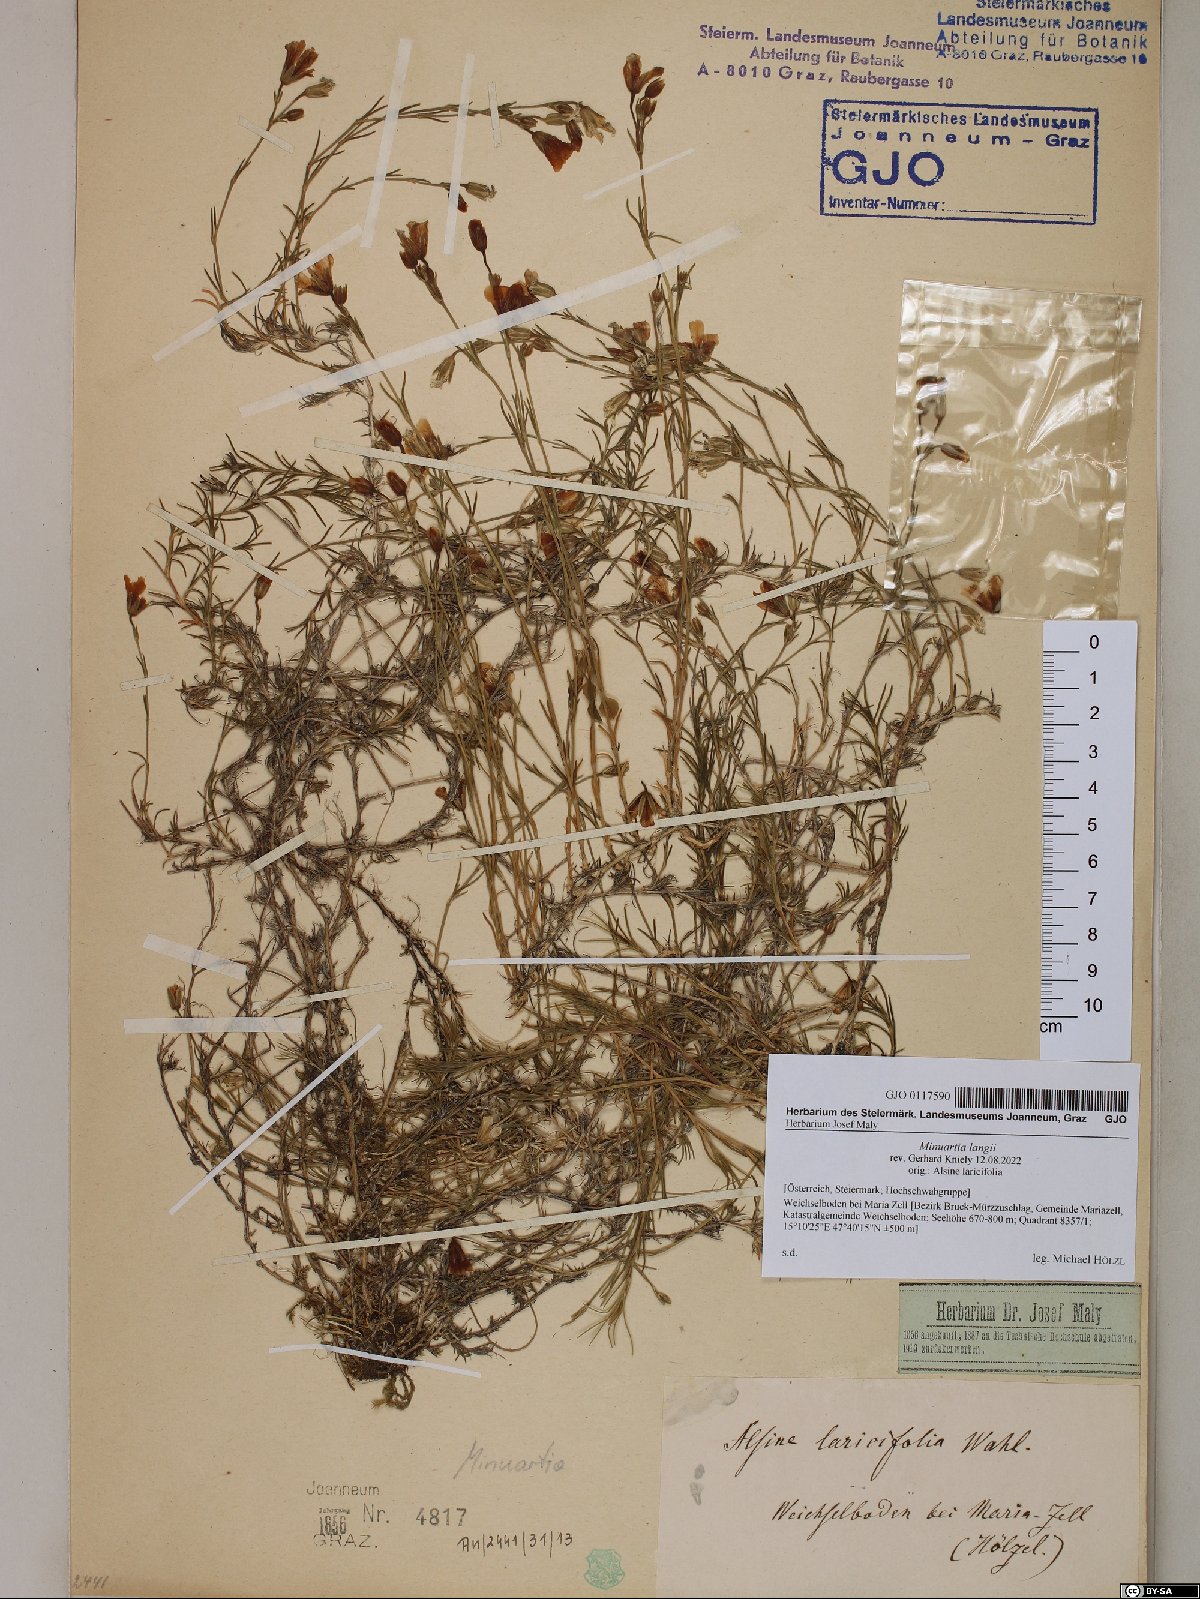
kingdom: Plantae
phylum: Tracheophyta
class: Magnoliopsida
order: Caryophyllales
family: Caryophyllaceae
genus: Cherleria
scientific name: Cherleria langii
